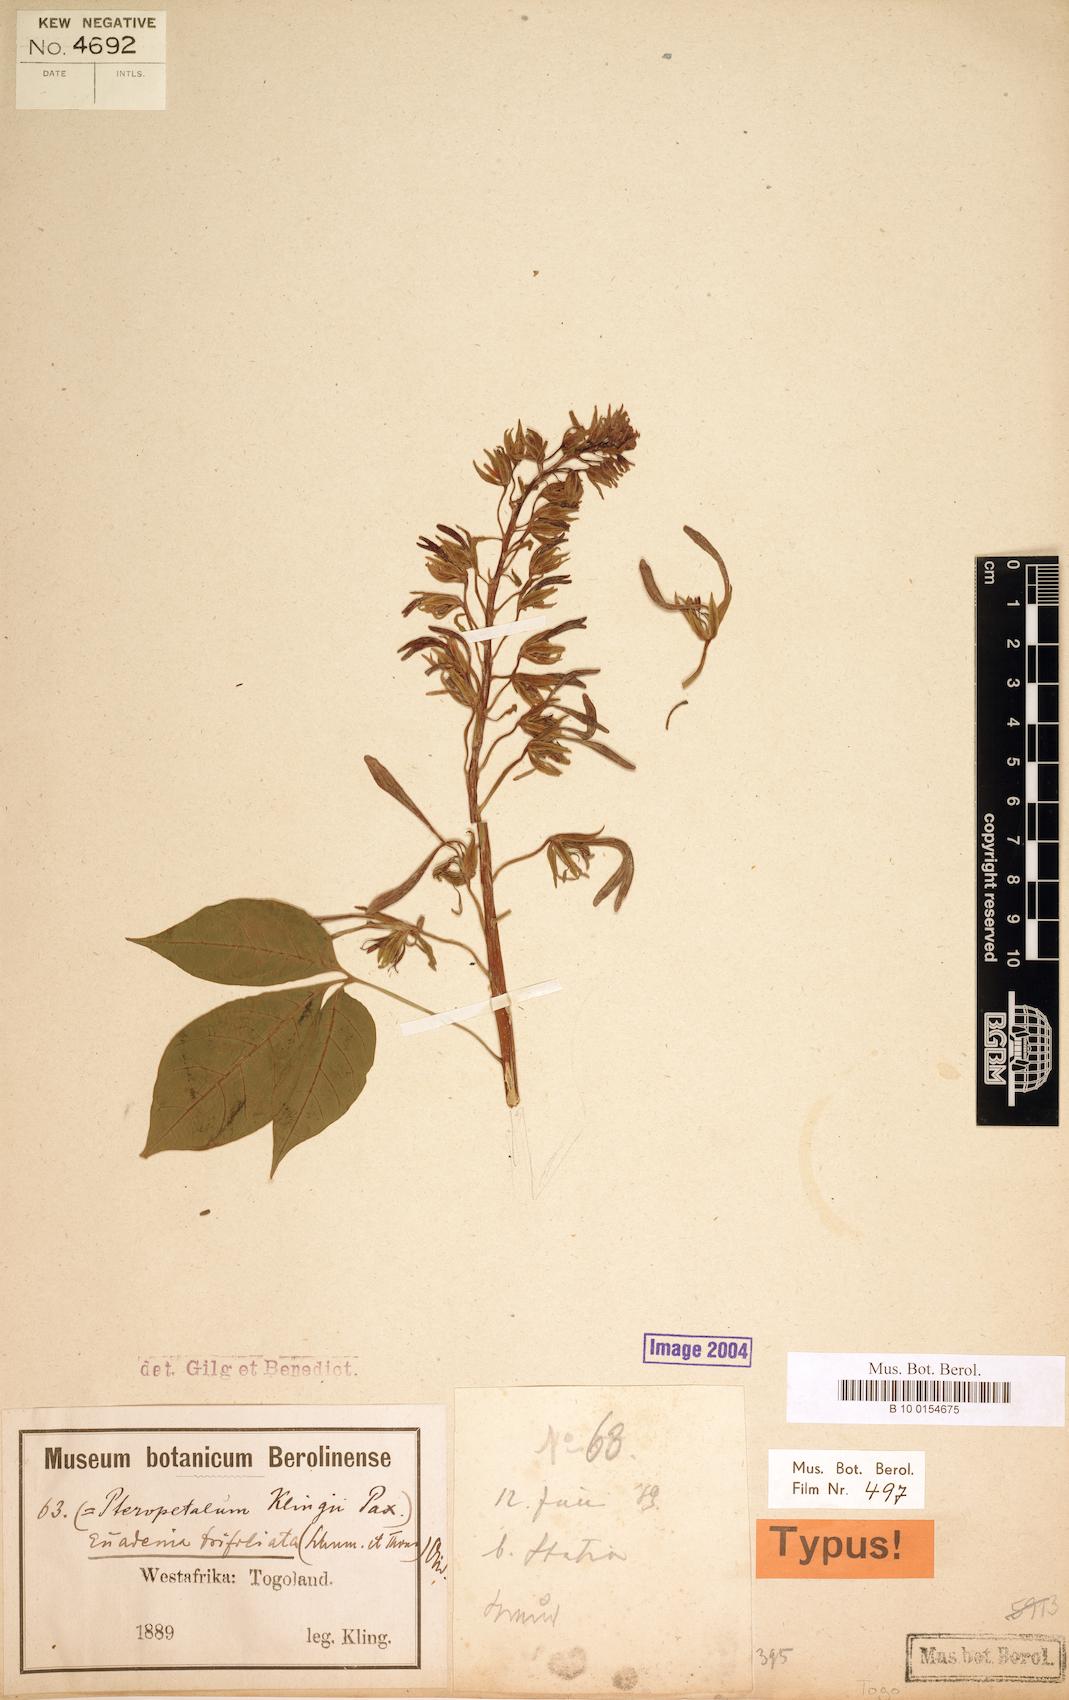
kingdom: Plantae
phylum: Tracheophyta
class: Magnoliopsida
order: Brassicales
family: Capparaceae
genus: Crateva
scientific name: Crateva Euadenia trifoliata
